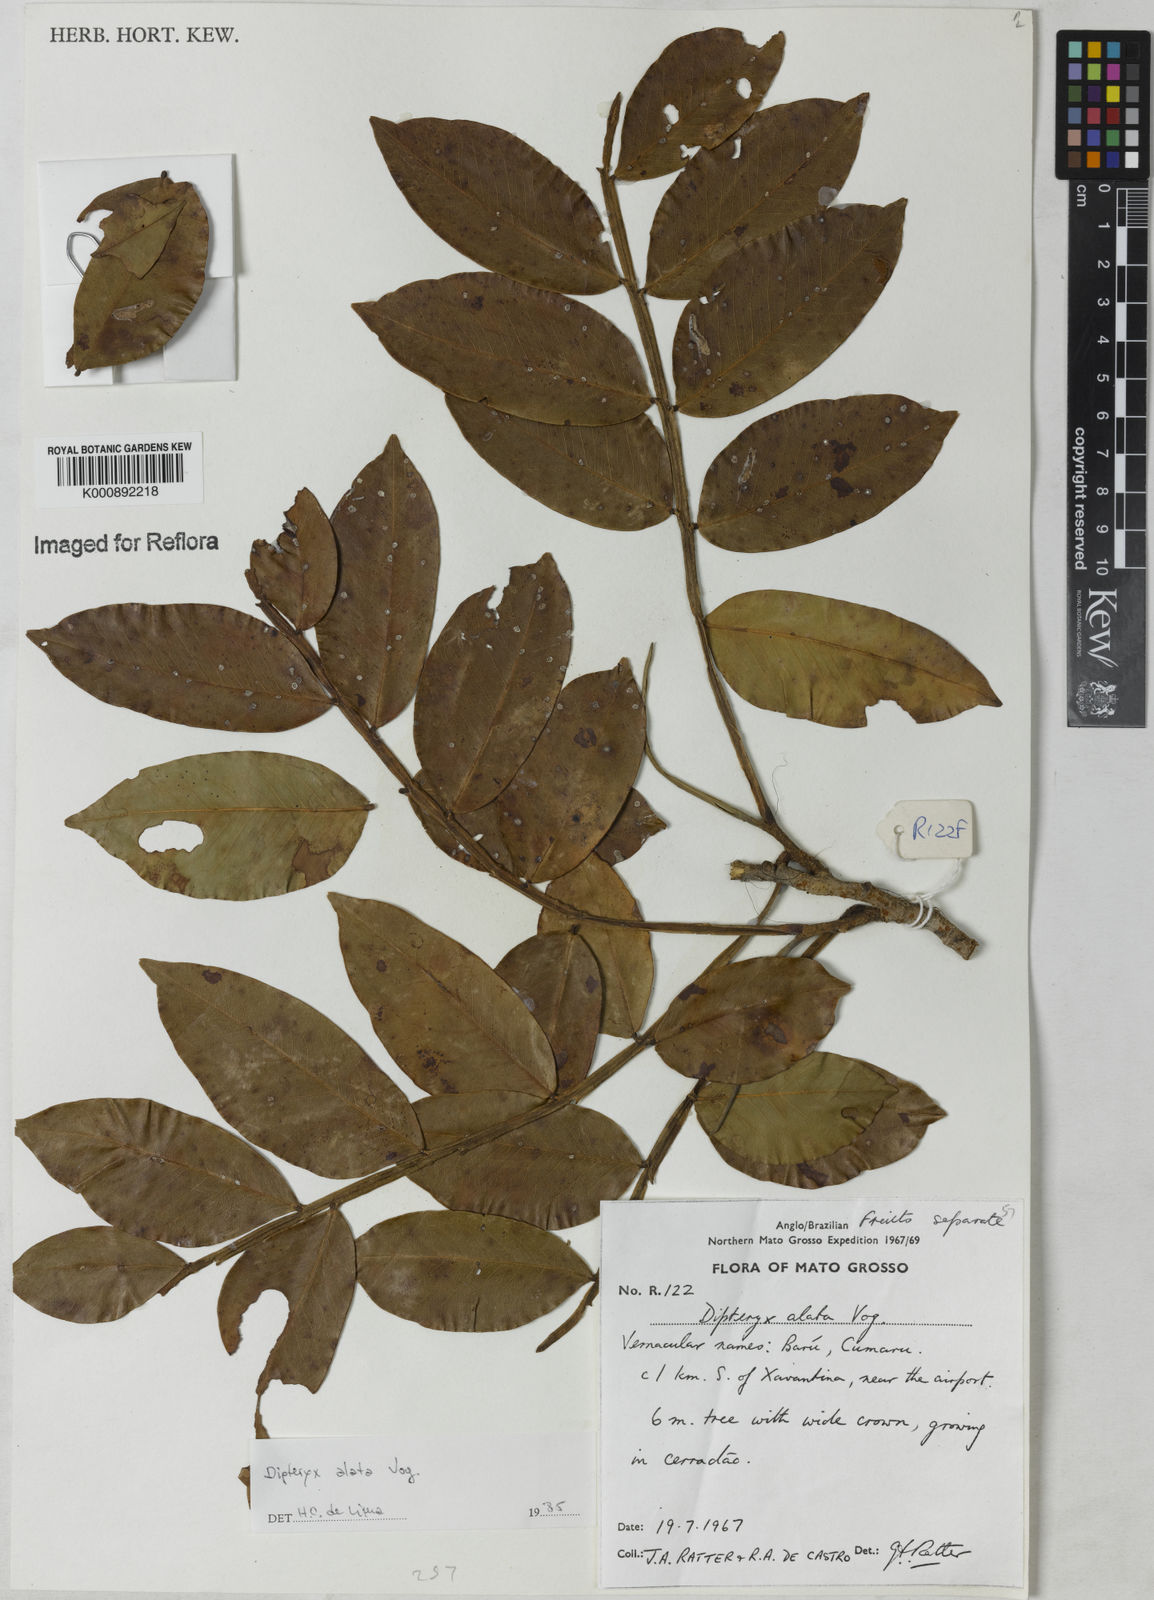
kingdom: Plantae
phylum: Tracheophyta
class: Magnoliopsida
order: Fabales
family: Fabaceae
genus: Dipteryx
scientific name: Dipteryx alata
